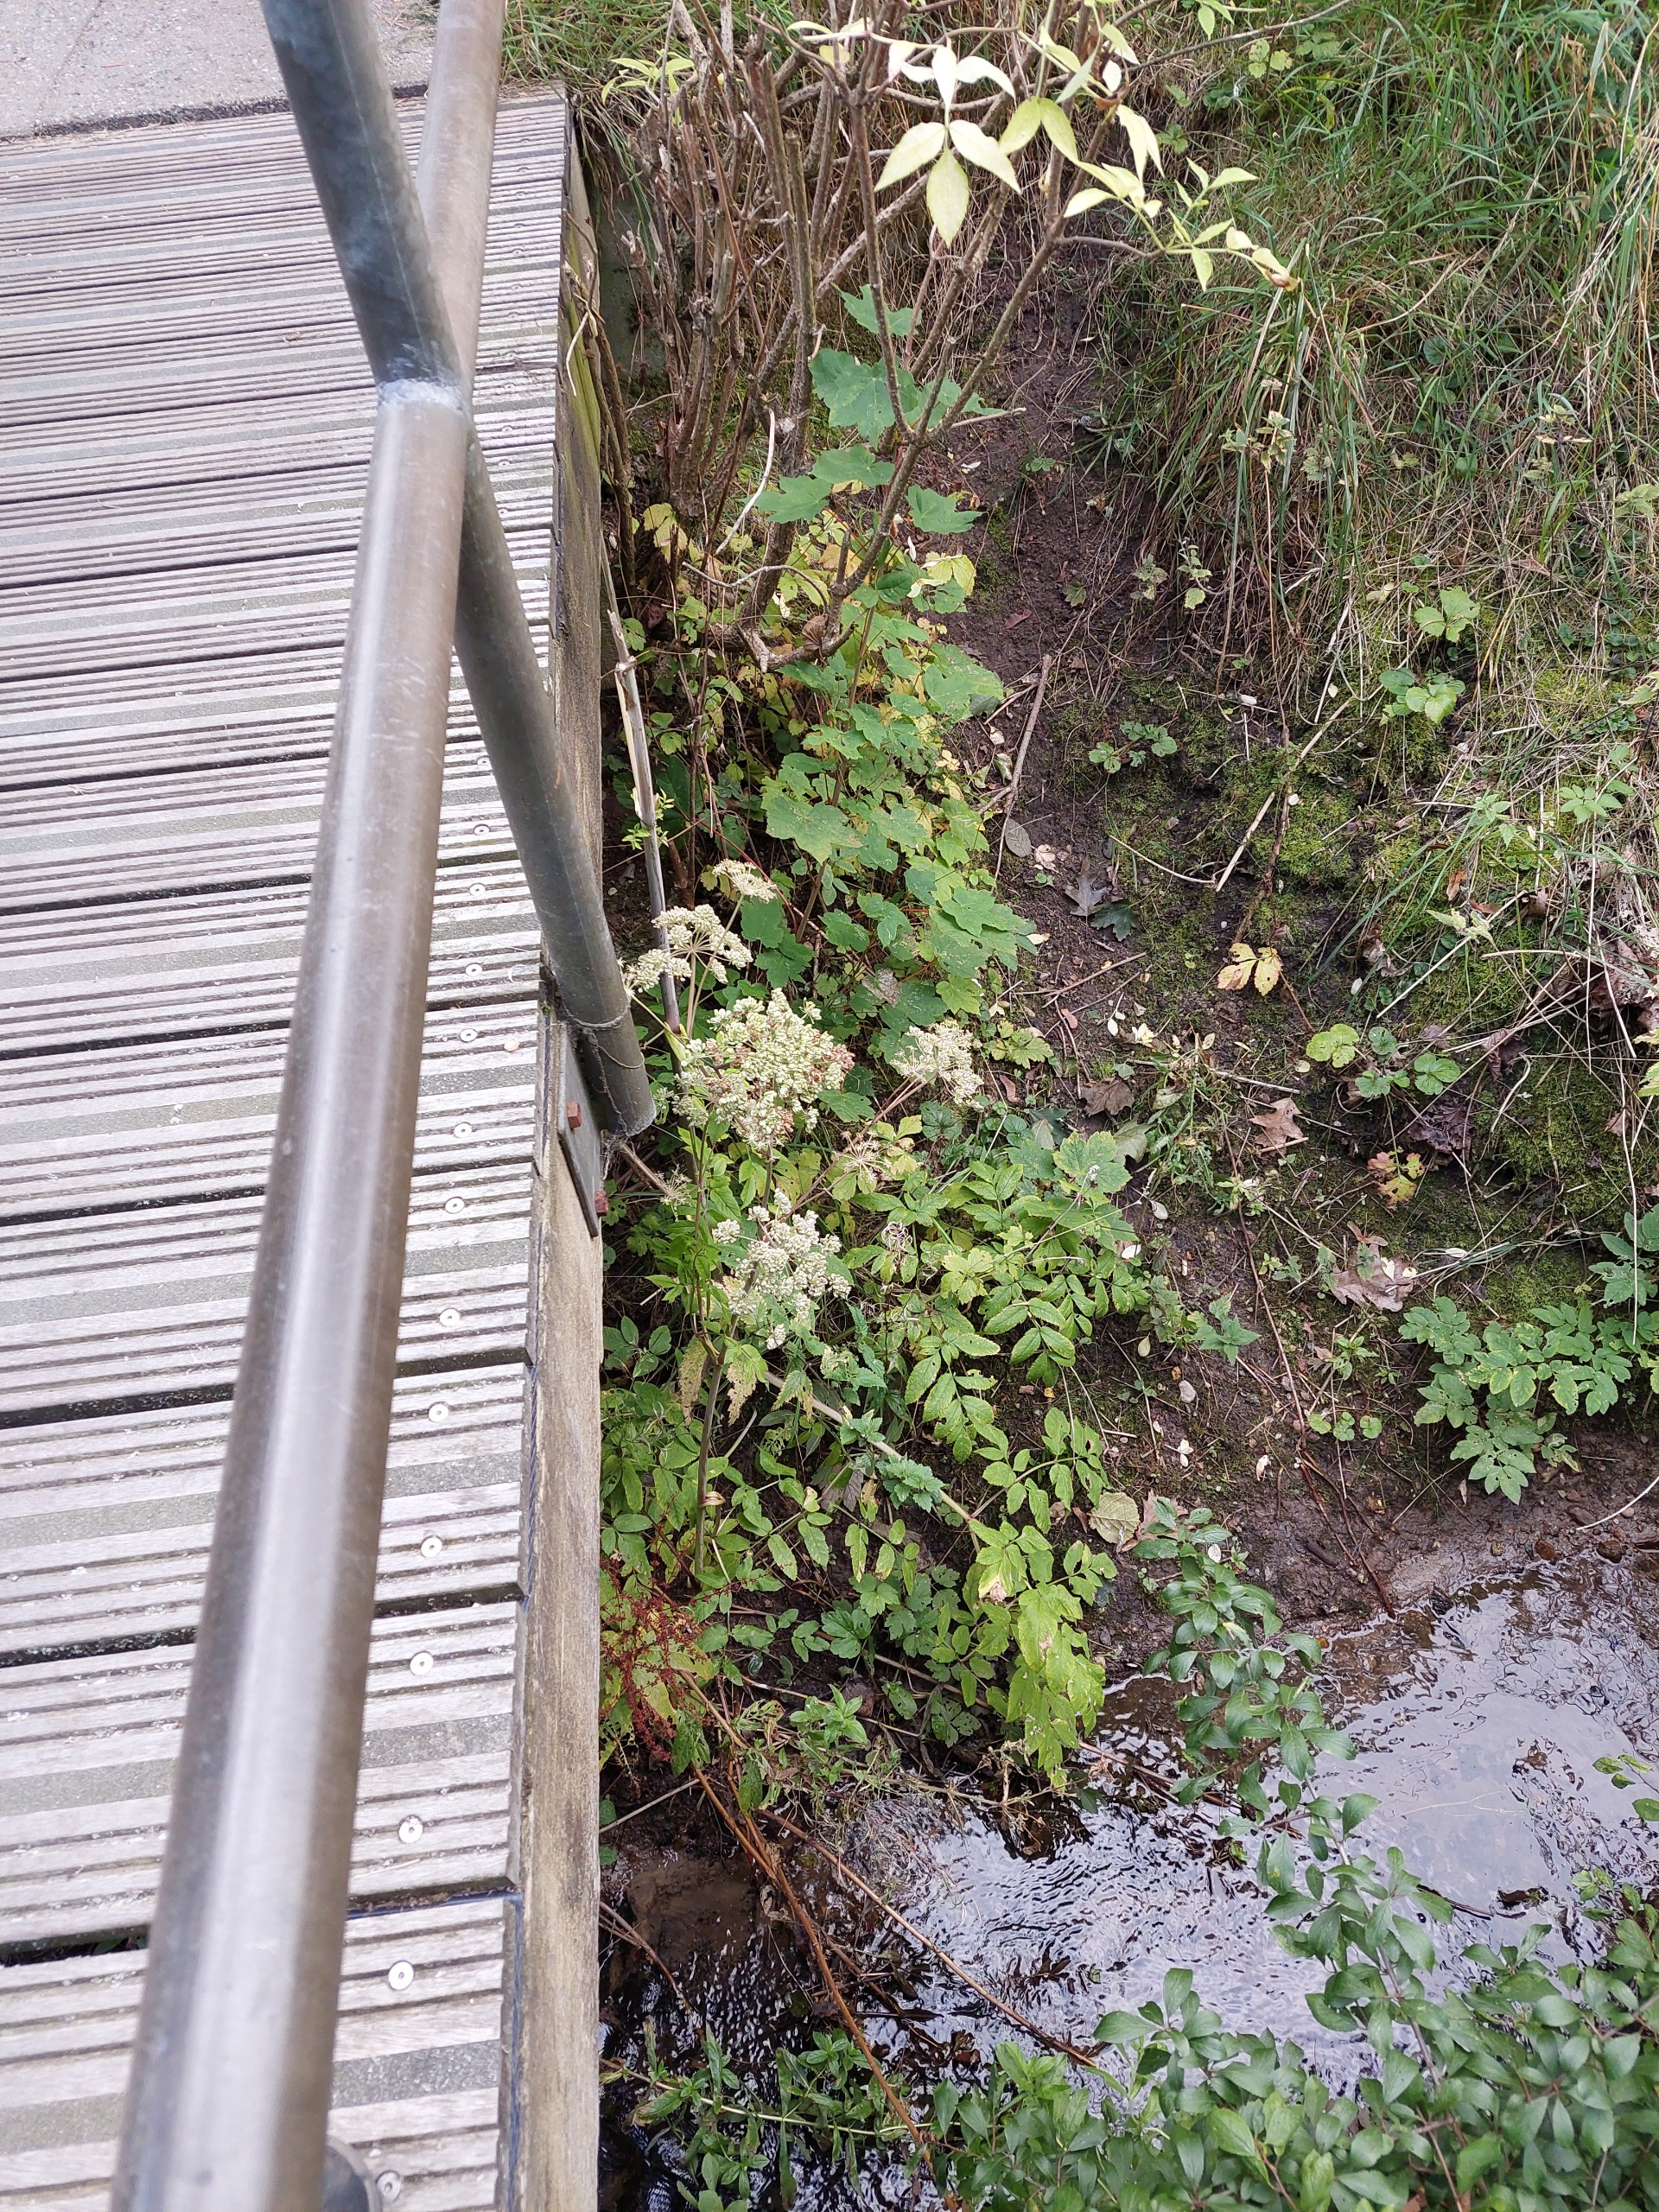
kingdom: Plantae
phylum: Tracheophyta
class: Magnoliopsida
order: Apiales
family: Apiaceae
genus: Angelica
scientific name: Angelica sylvestris
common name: Angelik
